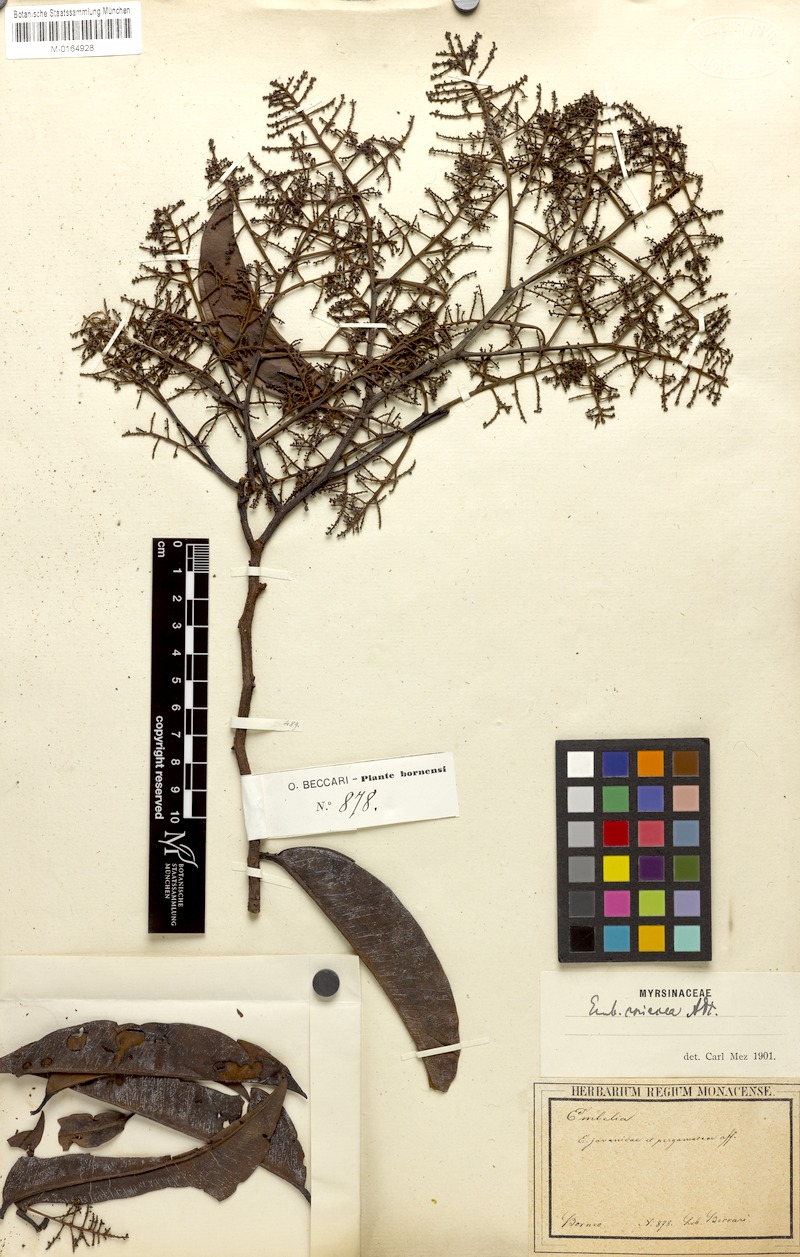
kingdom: Plantae
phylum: Tracheophyta
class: Magnoliopsida
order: Ericales
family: Primulaceae
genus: Embelia
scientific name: Embelia coriacea
